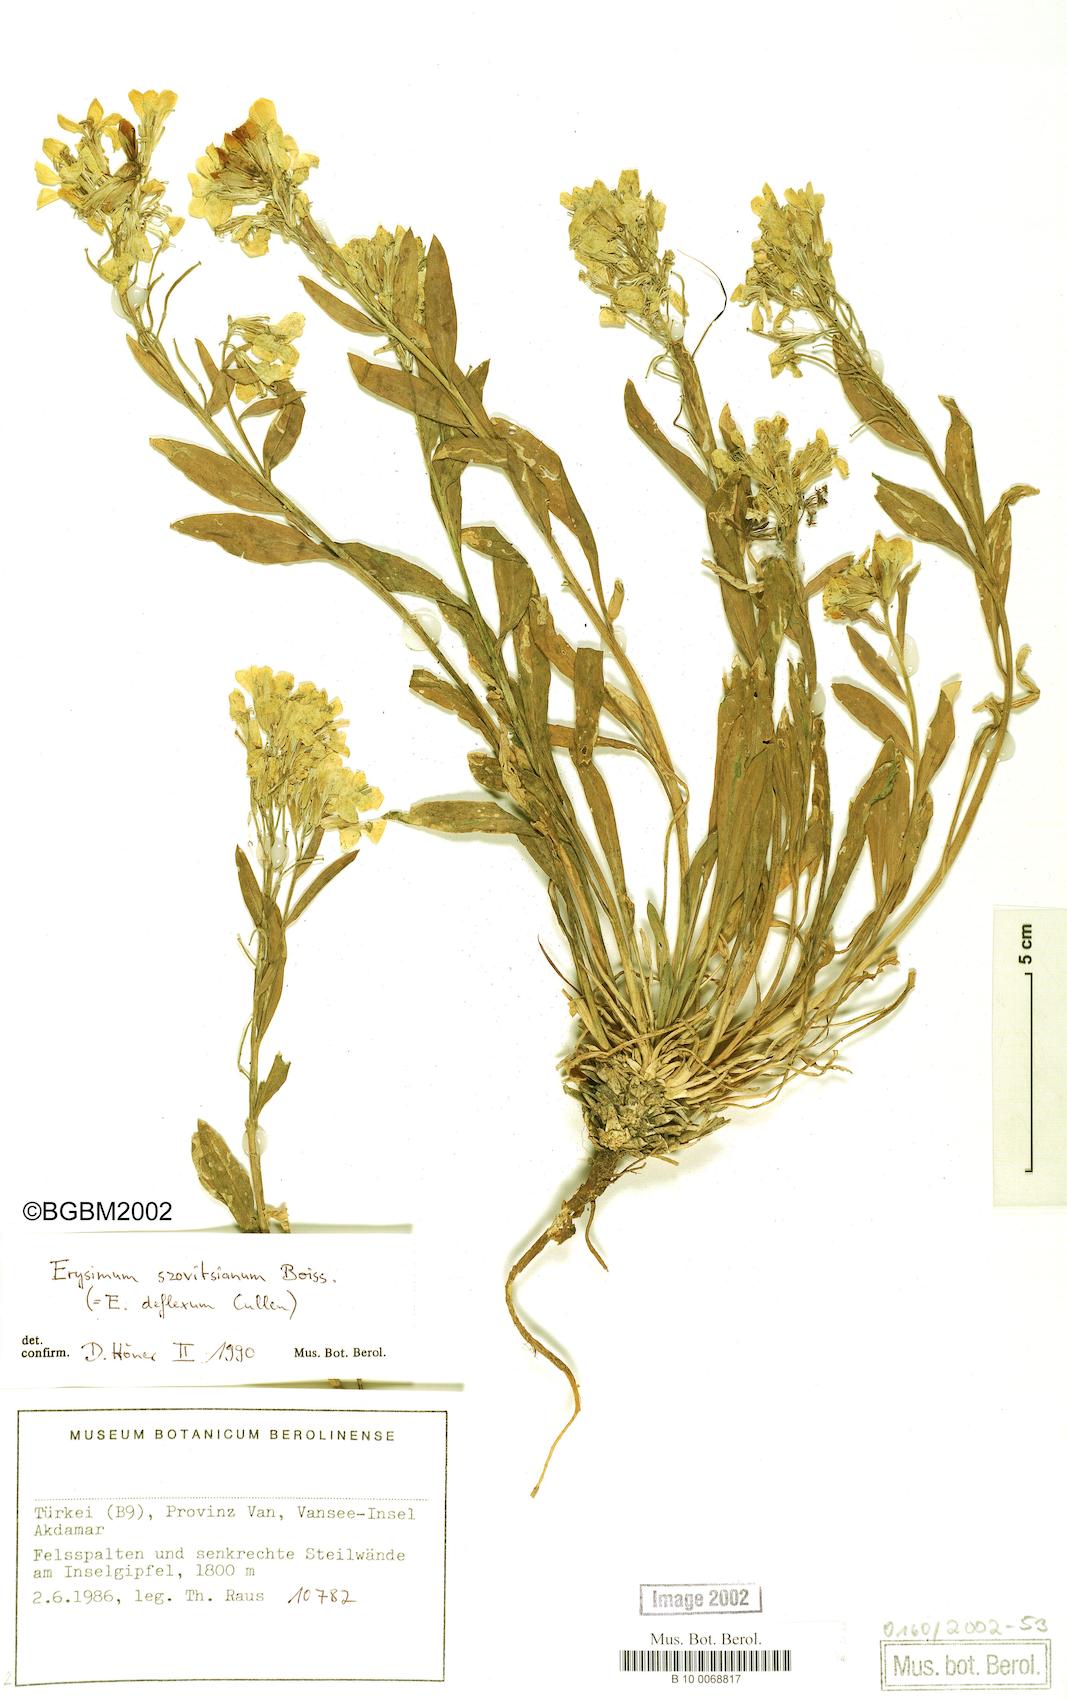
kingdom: Plantae
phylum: Tracheophyta
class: Magnoliopsida
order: Brassicales
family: Brassicaceae
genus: Erysimum
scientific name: Erysimum szowitsianum
